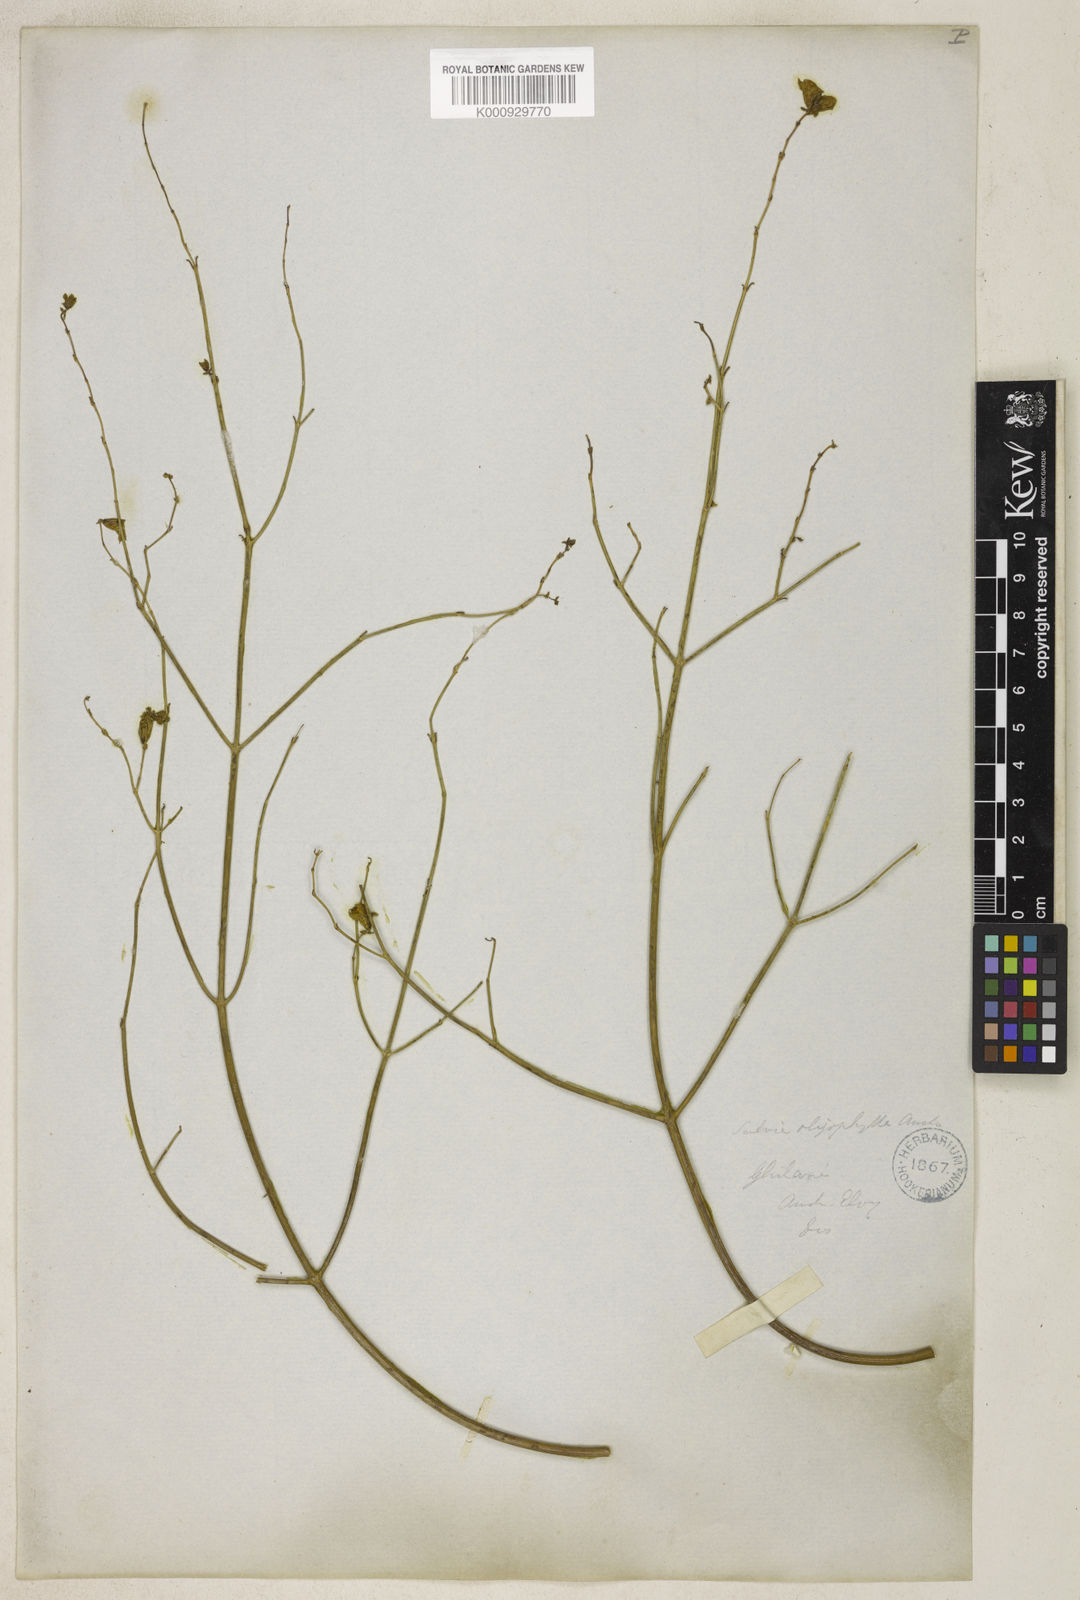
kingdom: Plantae
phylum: Tracheophyta
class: Magnoliopsida
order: Lamiales
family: Lamiaceae
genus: Salvia
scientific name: Salvia oligophylla
